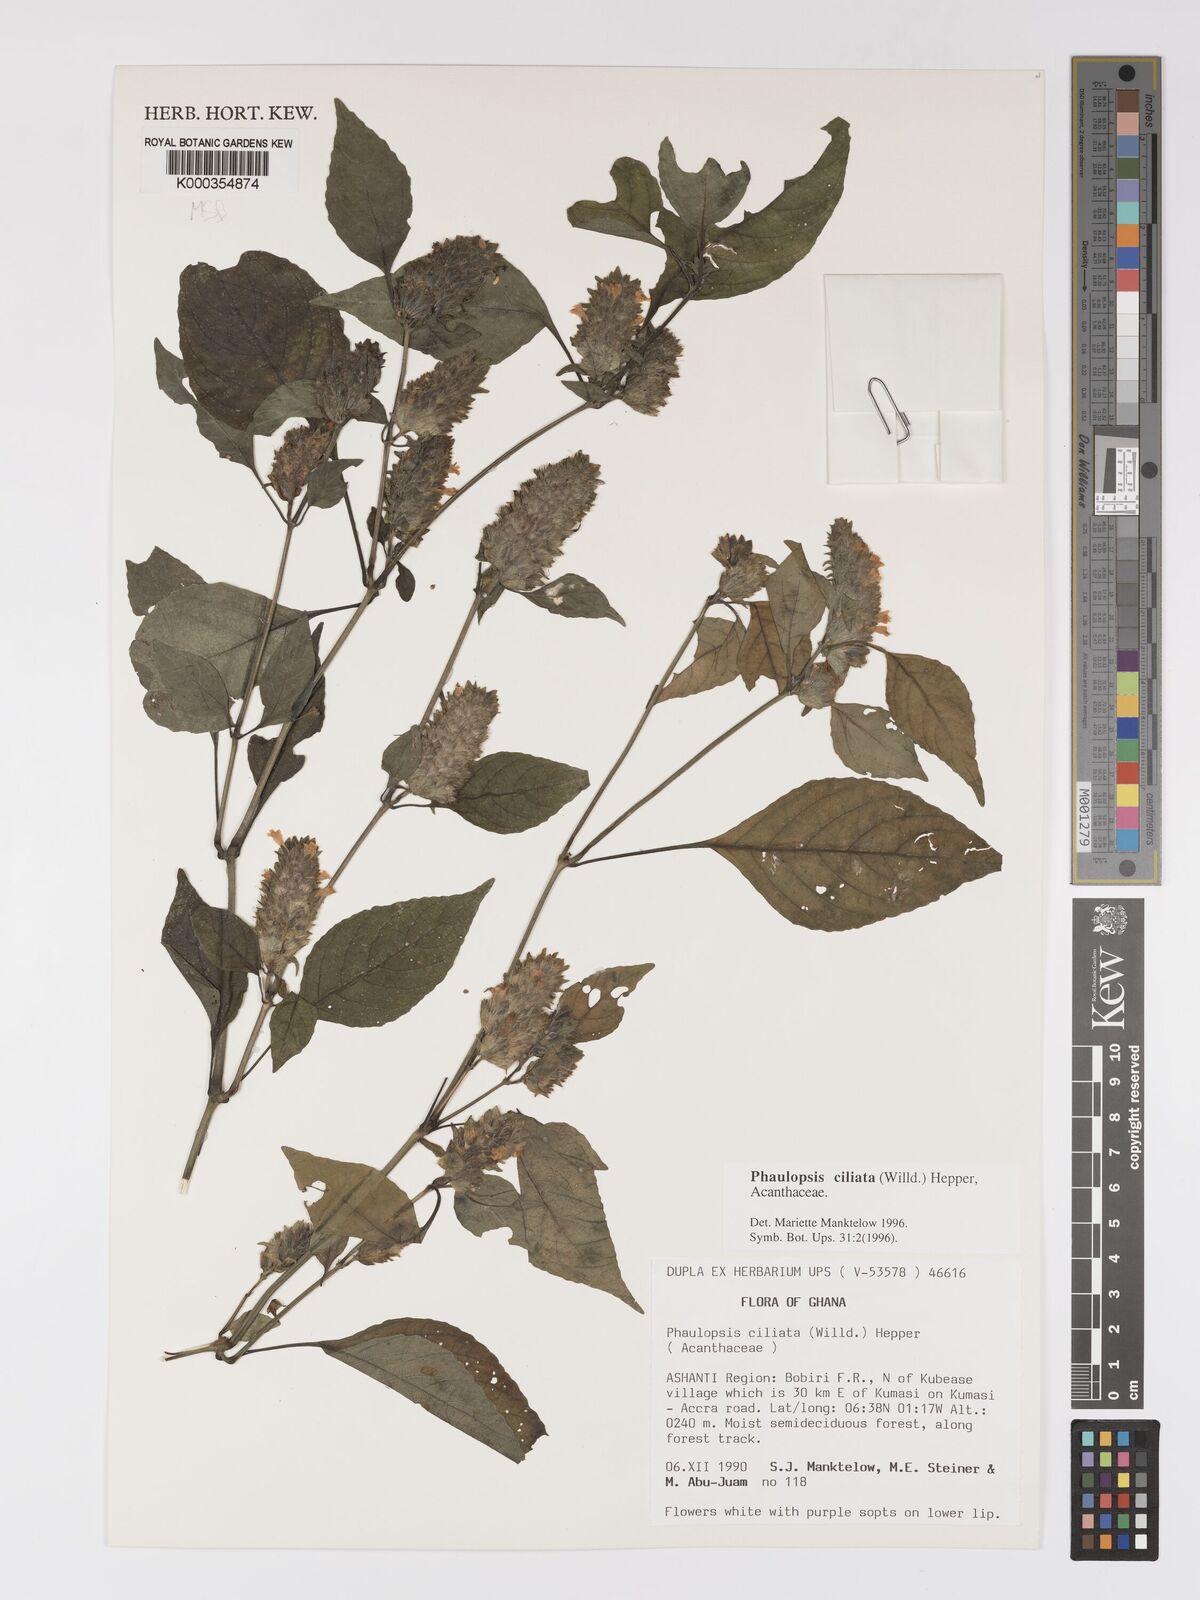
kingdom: Plantae
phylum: Tracheophyta
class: Magnoliopsida
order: Lamiales
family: Acanthaceae
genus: Phaulopsis
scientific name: Phaulopsis ciliata
